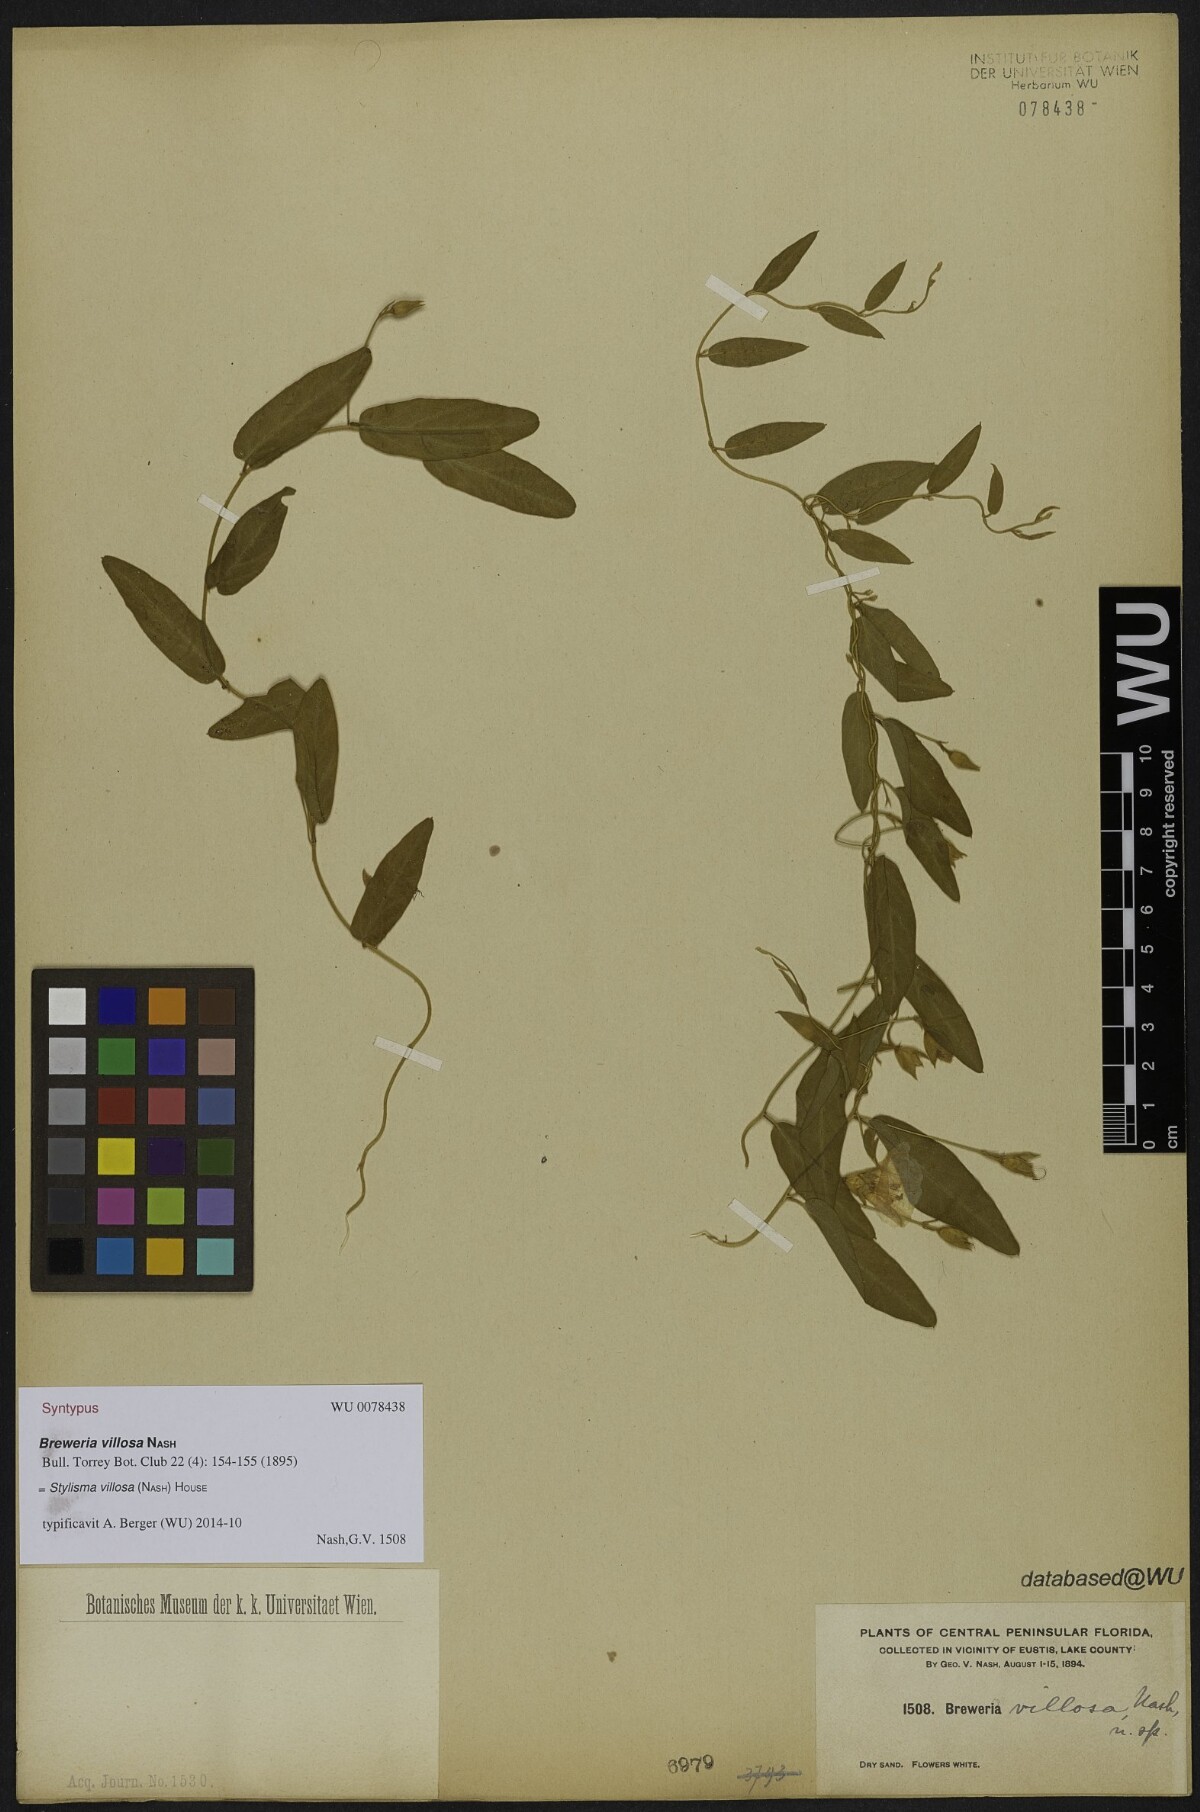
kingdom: Plantae
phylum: Tracheophyta
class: Magnoliopsida
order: Solanales
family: Convolvulaceae
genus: Stylisma
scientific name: Stylisma villosa
